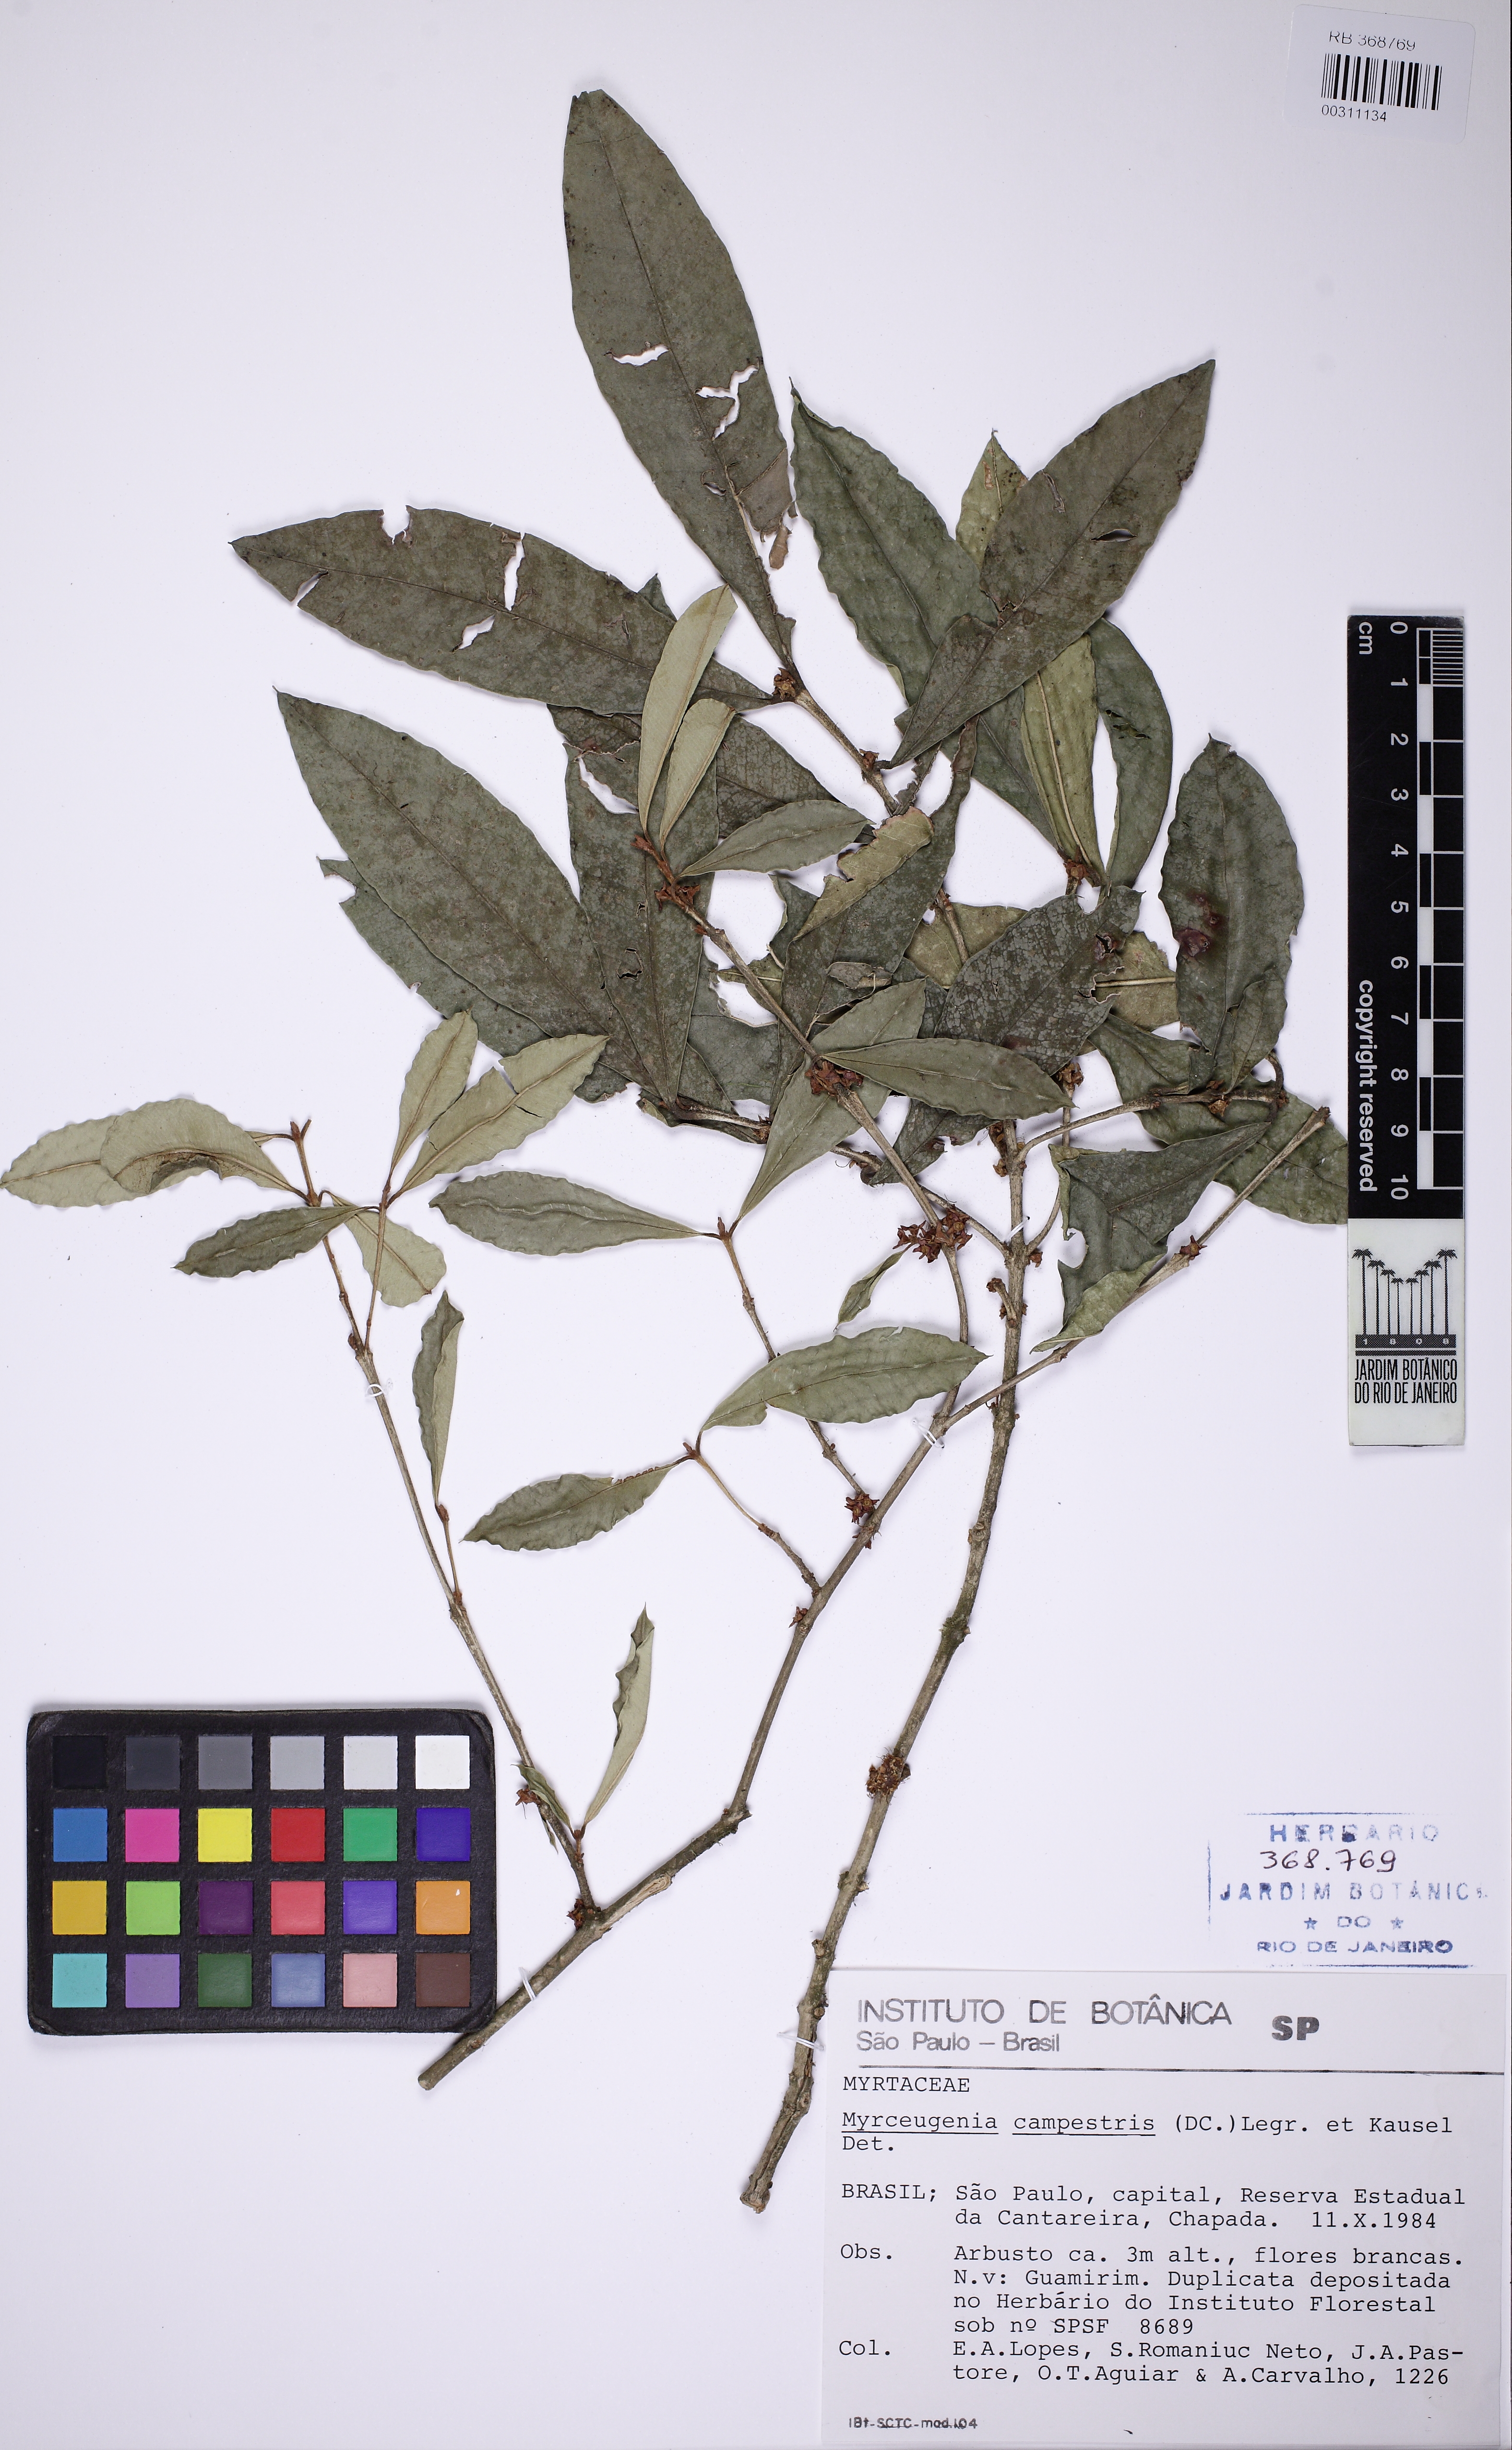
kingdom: Plantae
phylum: Tracheophyta
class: Magnoliopsida
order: Myrtales
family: Myrtaceae
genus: Myrceugenia
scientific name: Myrceugenia campestris
